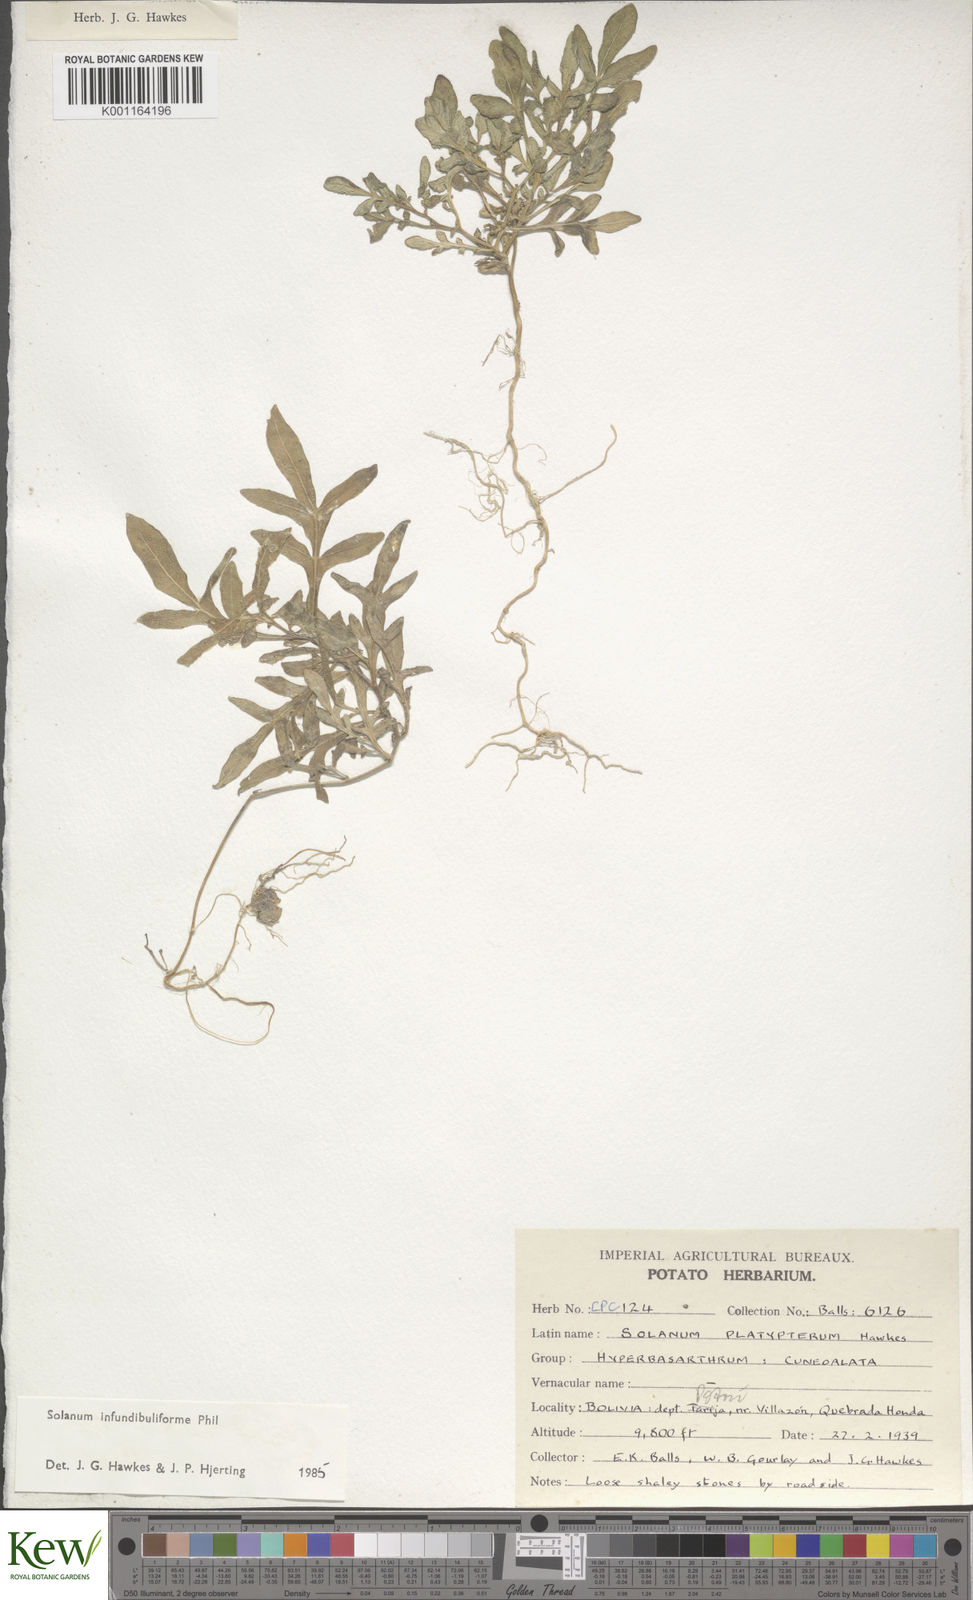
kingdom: Plantae
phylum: Tracheophyta
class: Magnoliopsida
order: Solanales
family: Solanaceae
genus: Solanum
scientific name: Solanum infundibuliforme
